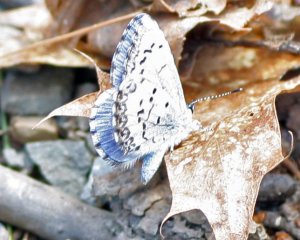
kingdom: Animalia
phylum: Arthropoda
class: Insecta
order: Lepidoptera
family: Lycaenidae
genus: Celastrina
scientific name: Celastrina lucia
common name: Northern Spring Azure
